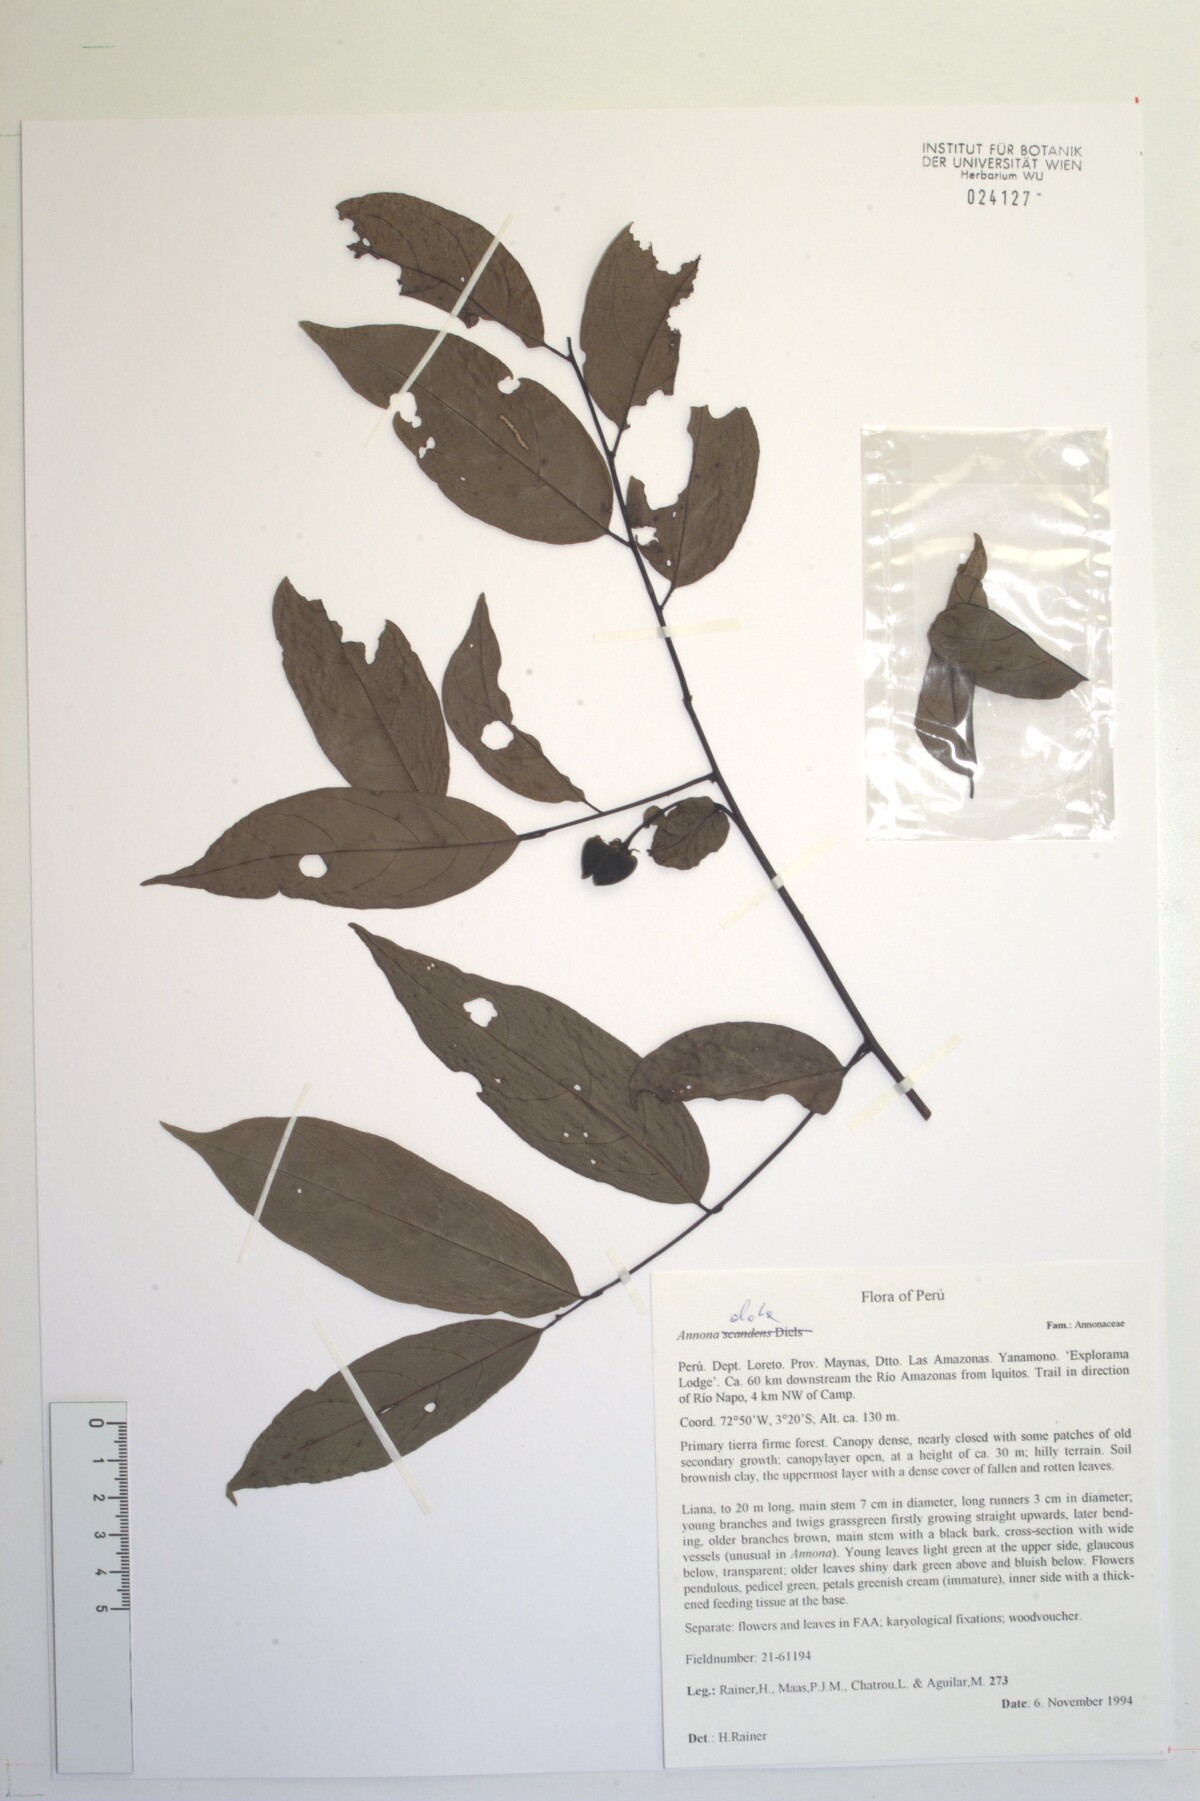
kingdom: Plantae
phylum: Tracheophyta
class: Magnoliopsida
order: Magnoliales
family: Annonaceae
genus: Annona
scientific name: Annona
